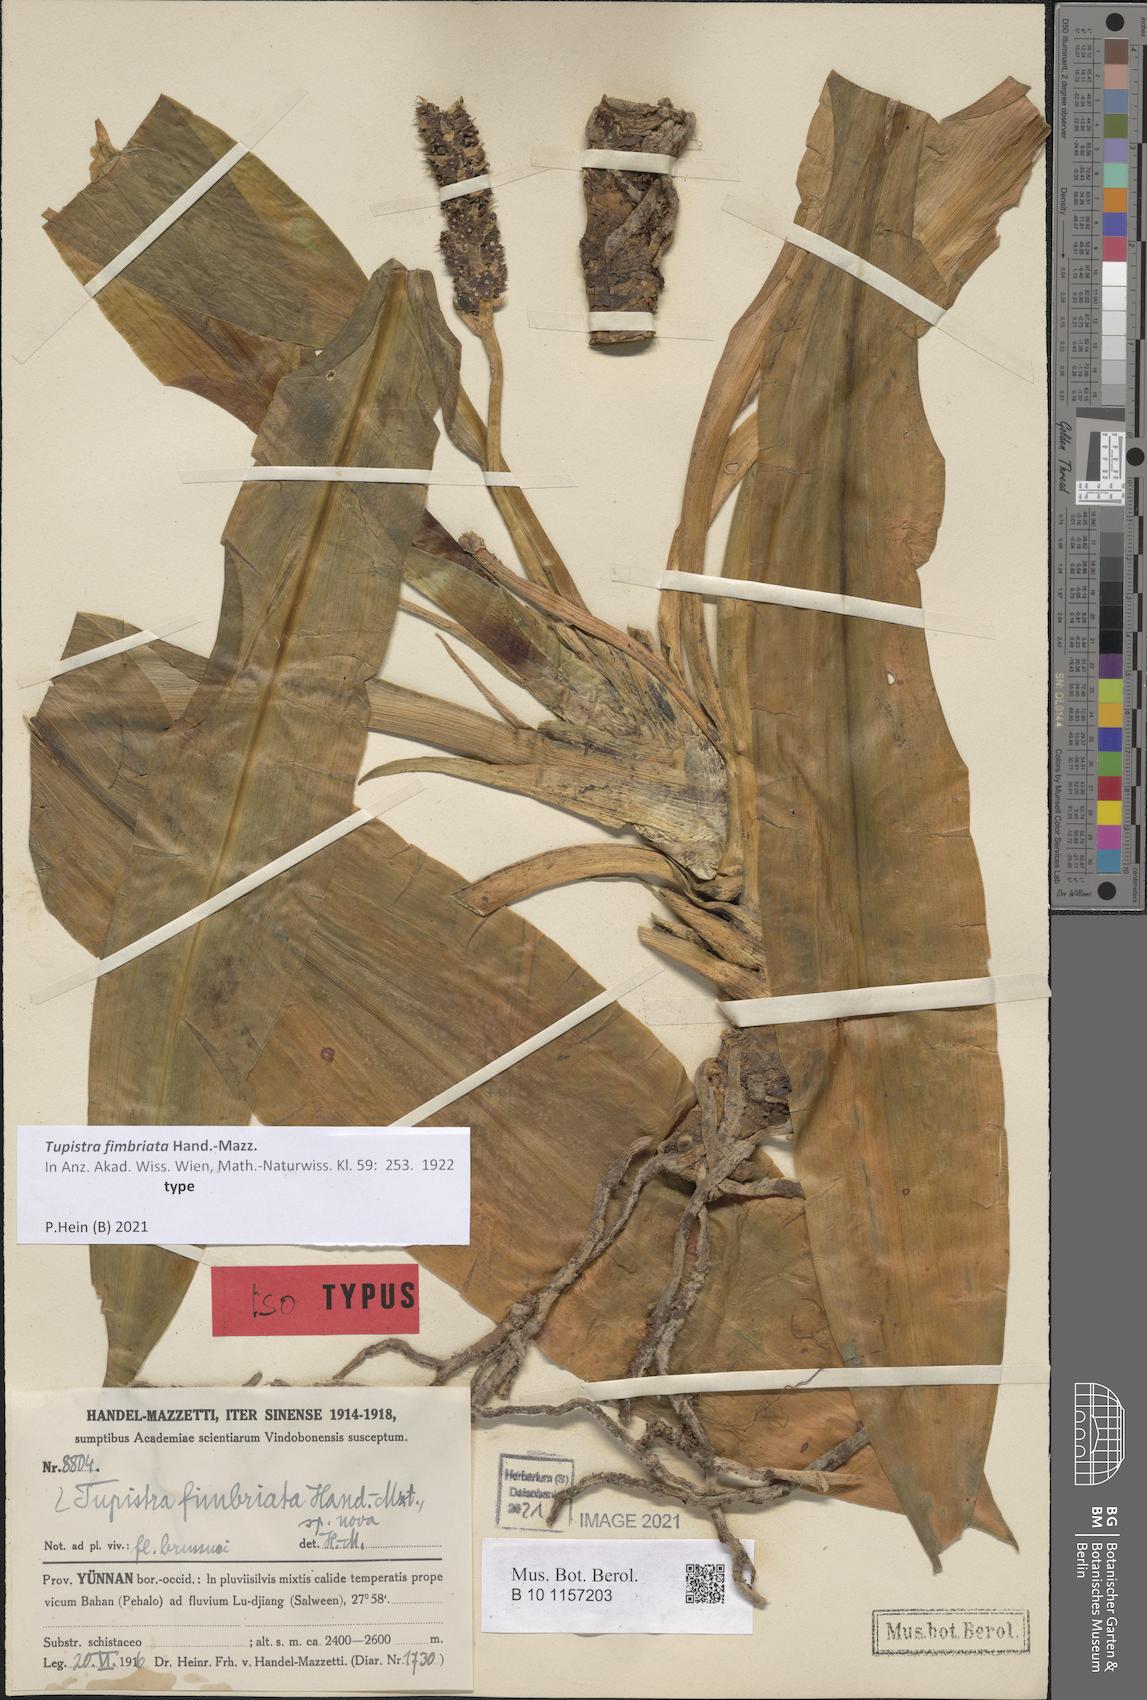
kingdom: Plantae
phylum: Tracheophyta
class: Liliopsida
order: Asparagales
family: Asparagaceae
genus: Rohdea
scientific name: Rohdea delavayi
